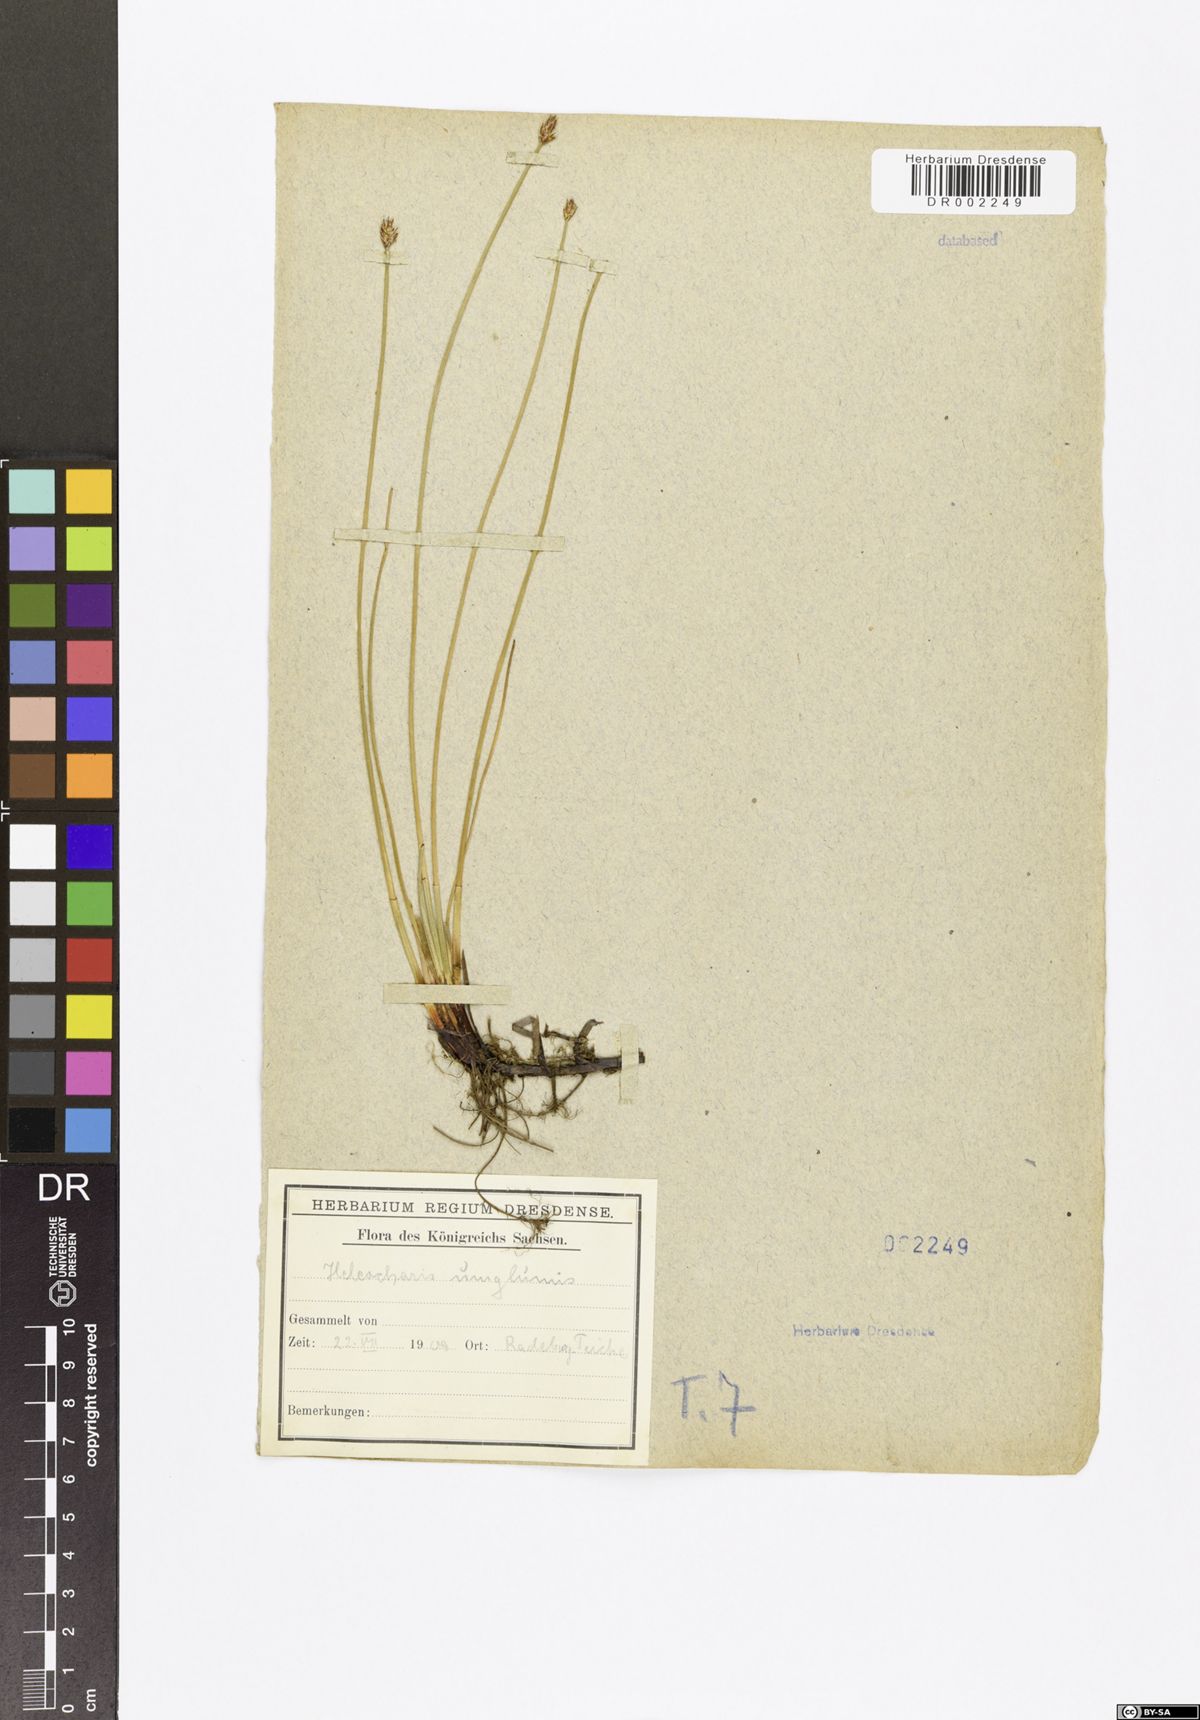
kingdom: Plantae
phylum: Tracheophyta
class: Liliopsida
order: Poales
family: Cyperaceae
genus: Eleocharis
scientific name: Eleocharis uniglumis
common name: Slender spike-rush
